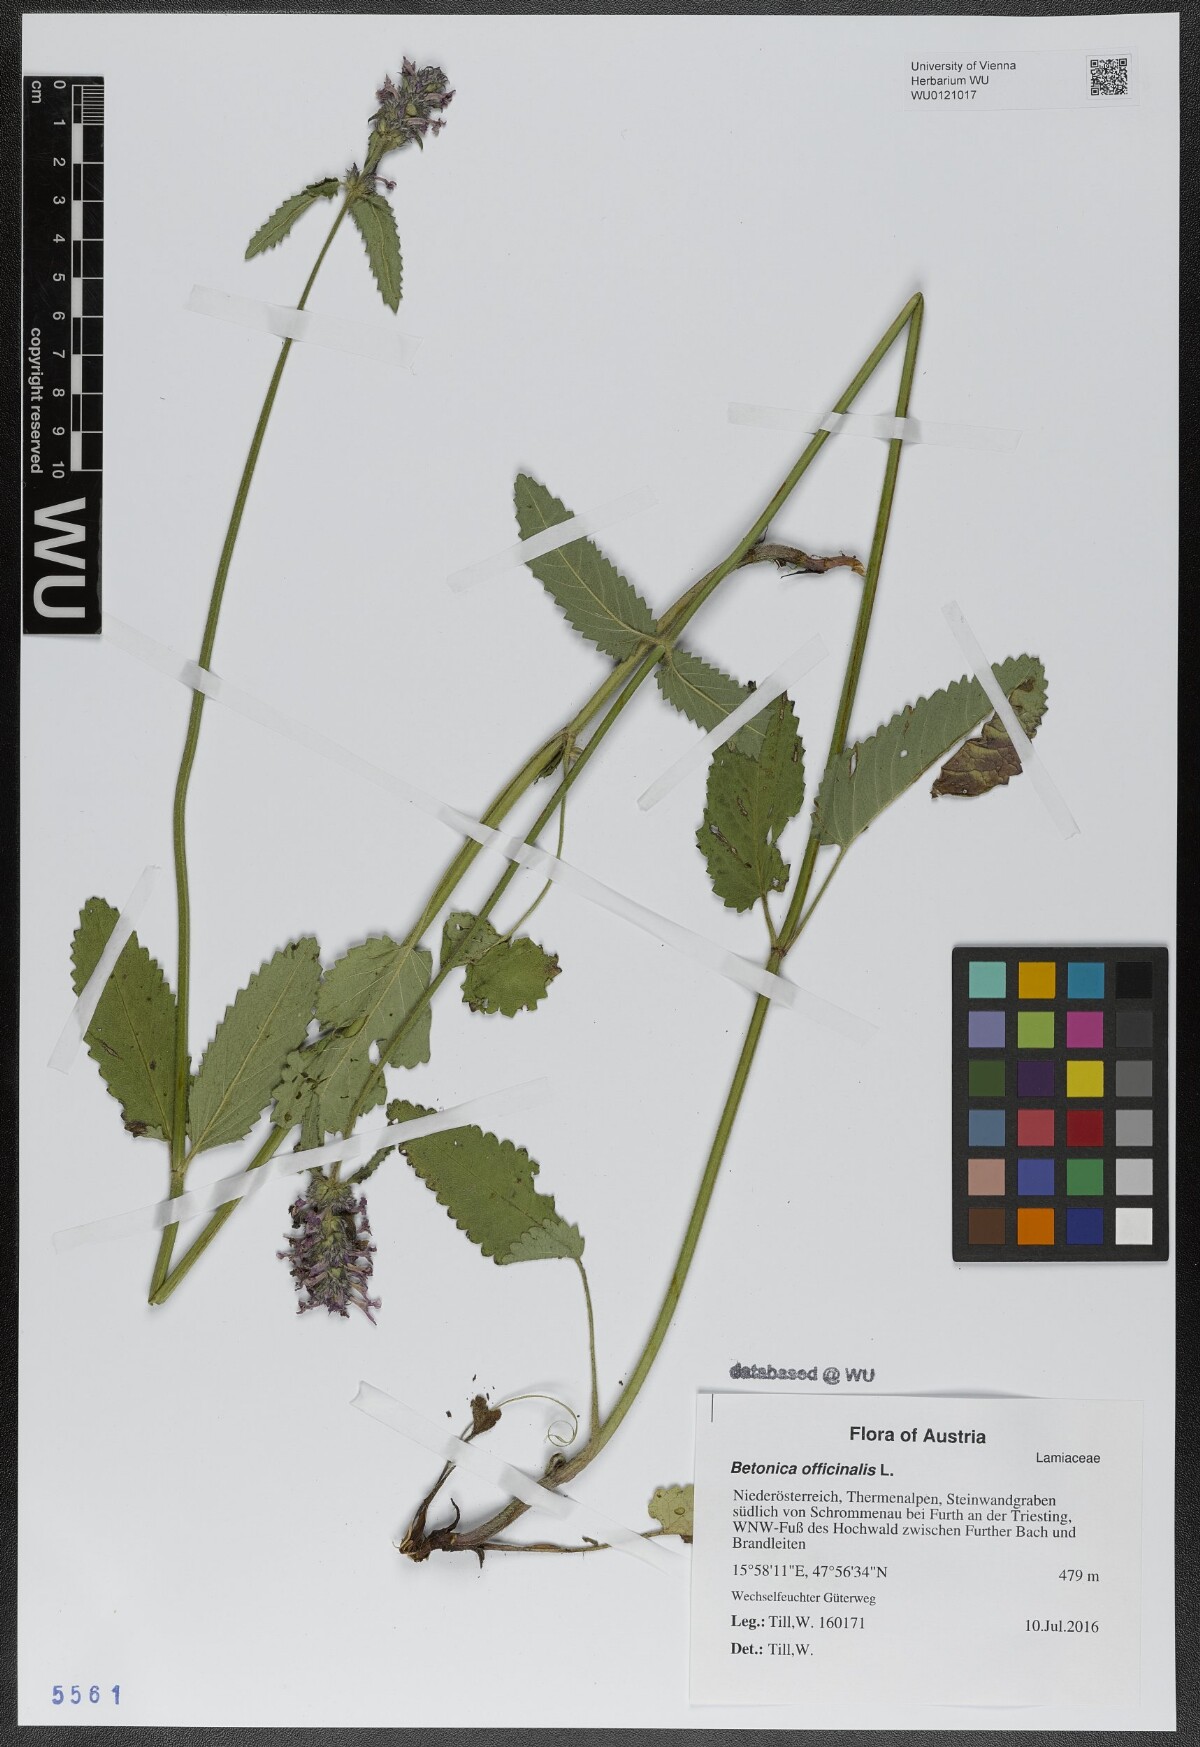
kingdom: Plantae
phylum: Tracheophyta
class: Magnoliopsida
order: Lamiales
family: Lamiaceae
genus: Betonica
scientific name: Betonica officinalis
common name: Bishop's-wort
